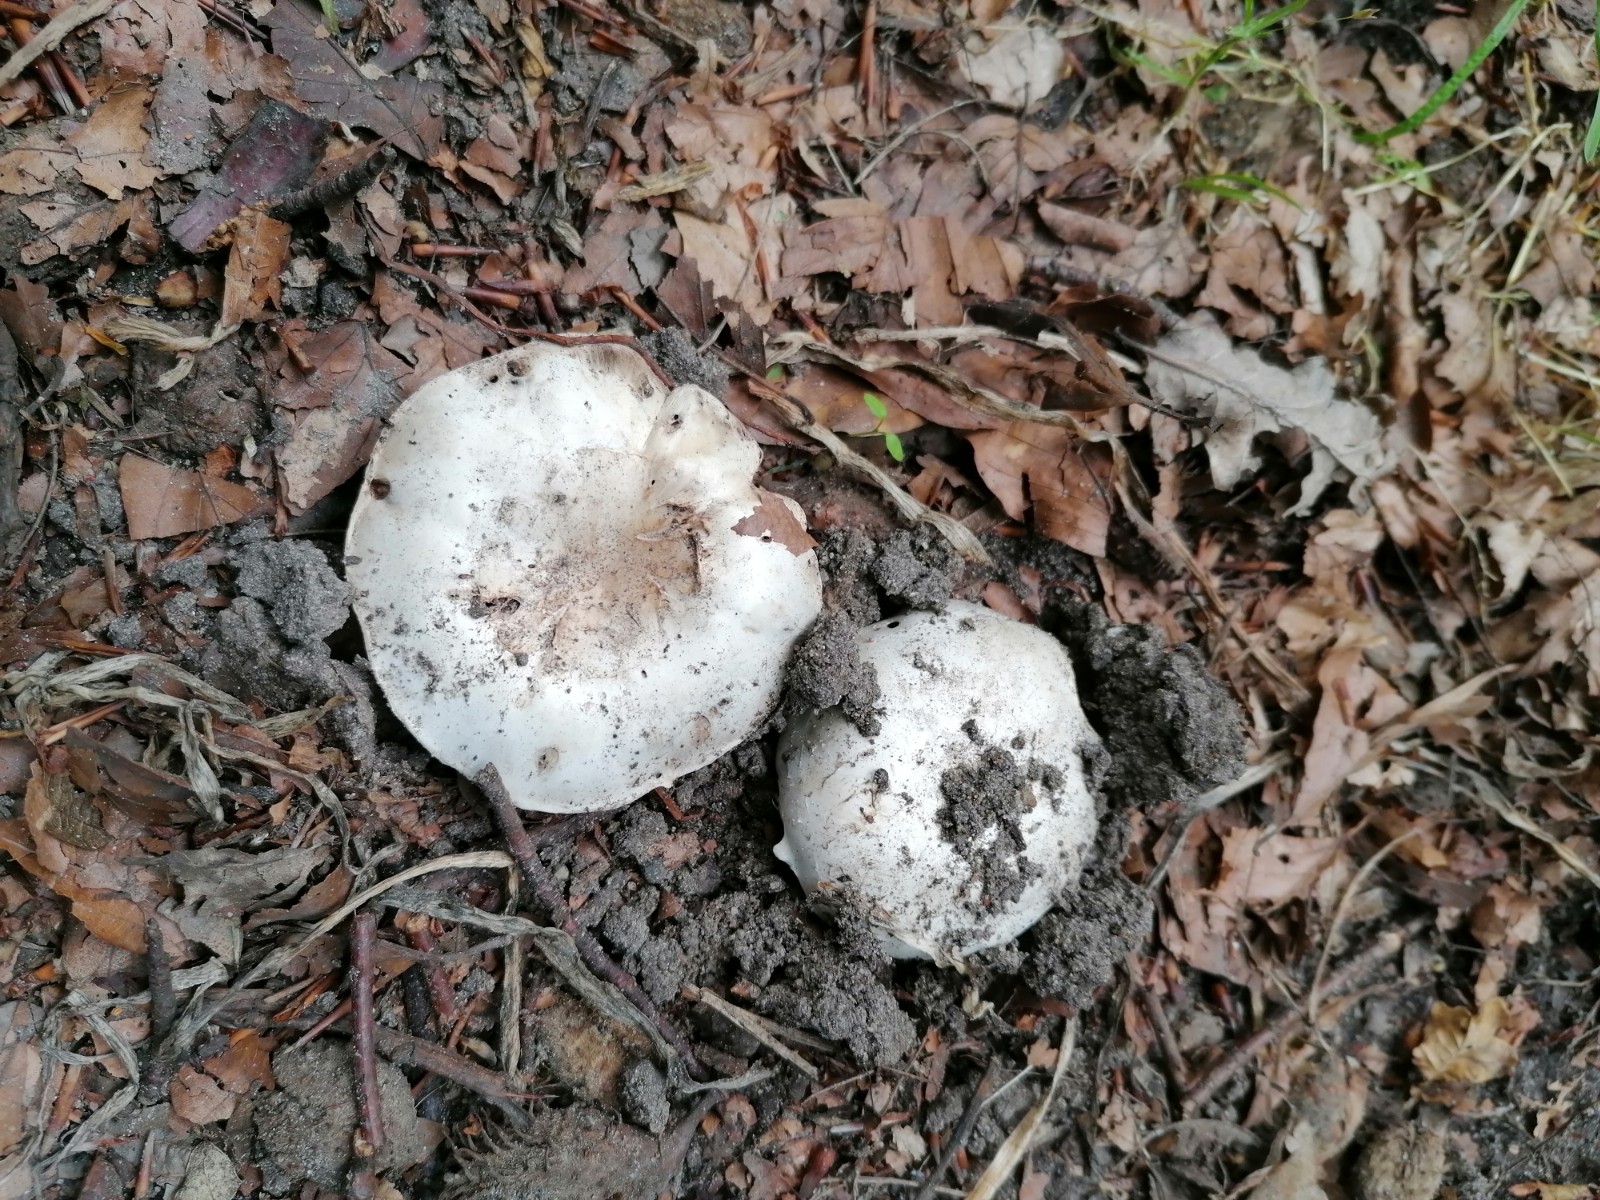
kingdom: Fungi
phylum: Basidiomycota
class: Agaricomycetes
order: Agaricales
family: Agaricaceae
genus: Agaricus
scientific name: Agaricus bitorquis
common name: vej-champignon
